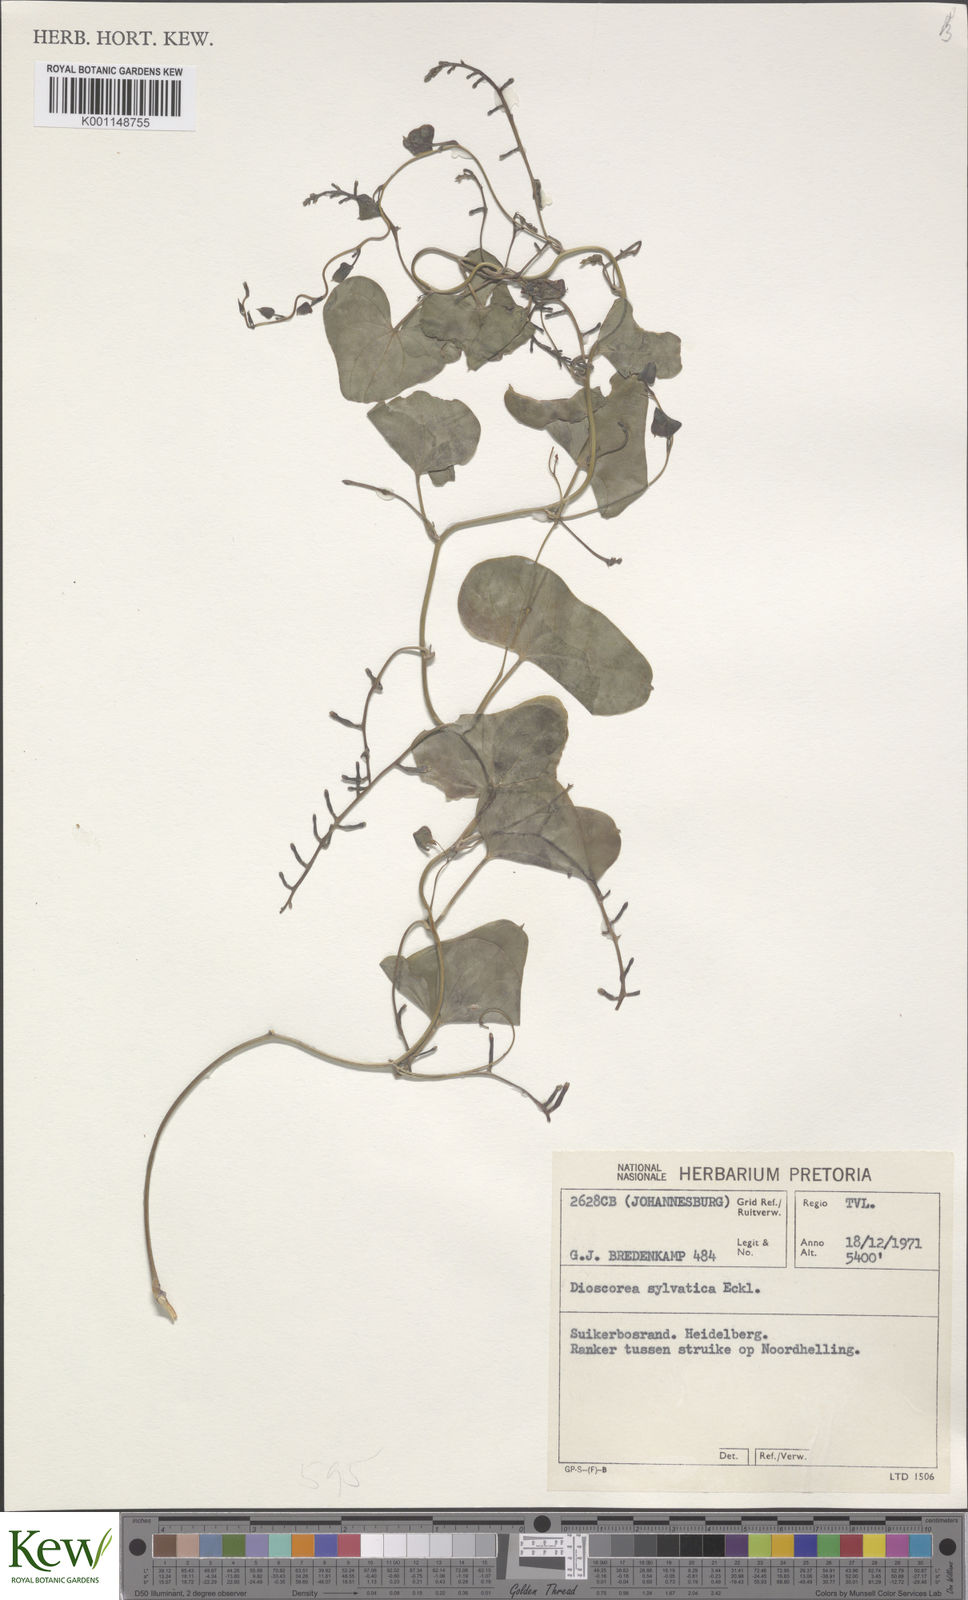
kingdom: Plantae
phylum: Tracheophyta
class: Liliopsida
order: Dioscoreales
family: Dioscoreaceae
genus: Dioscorea
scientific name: Dioscorea sylvatica
